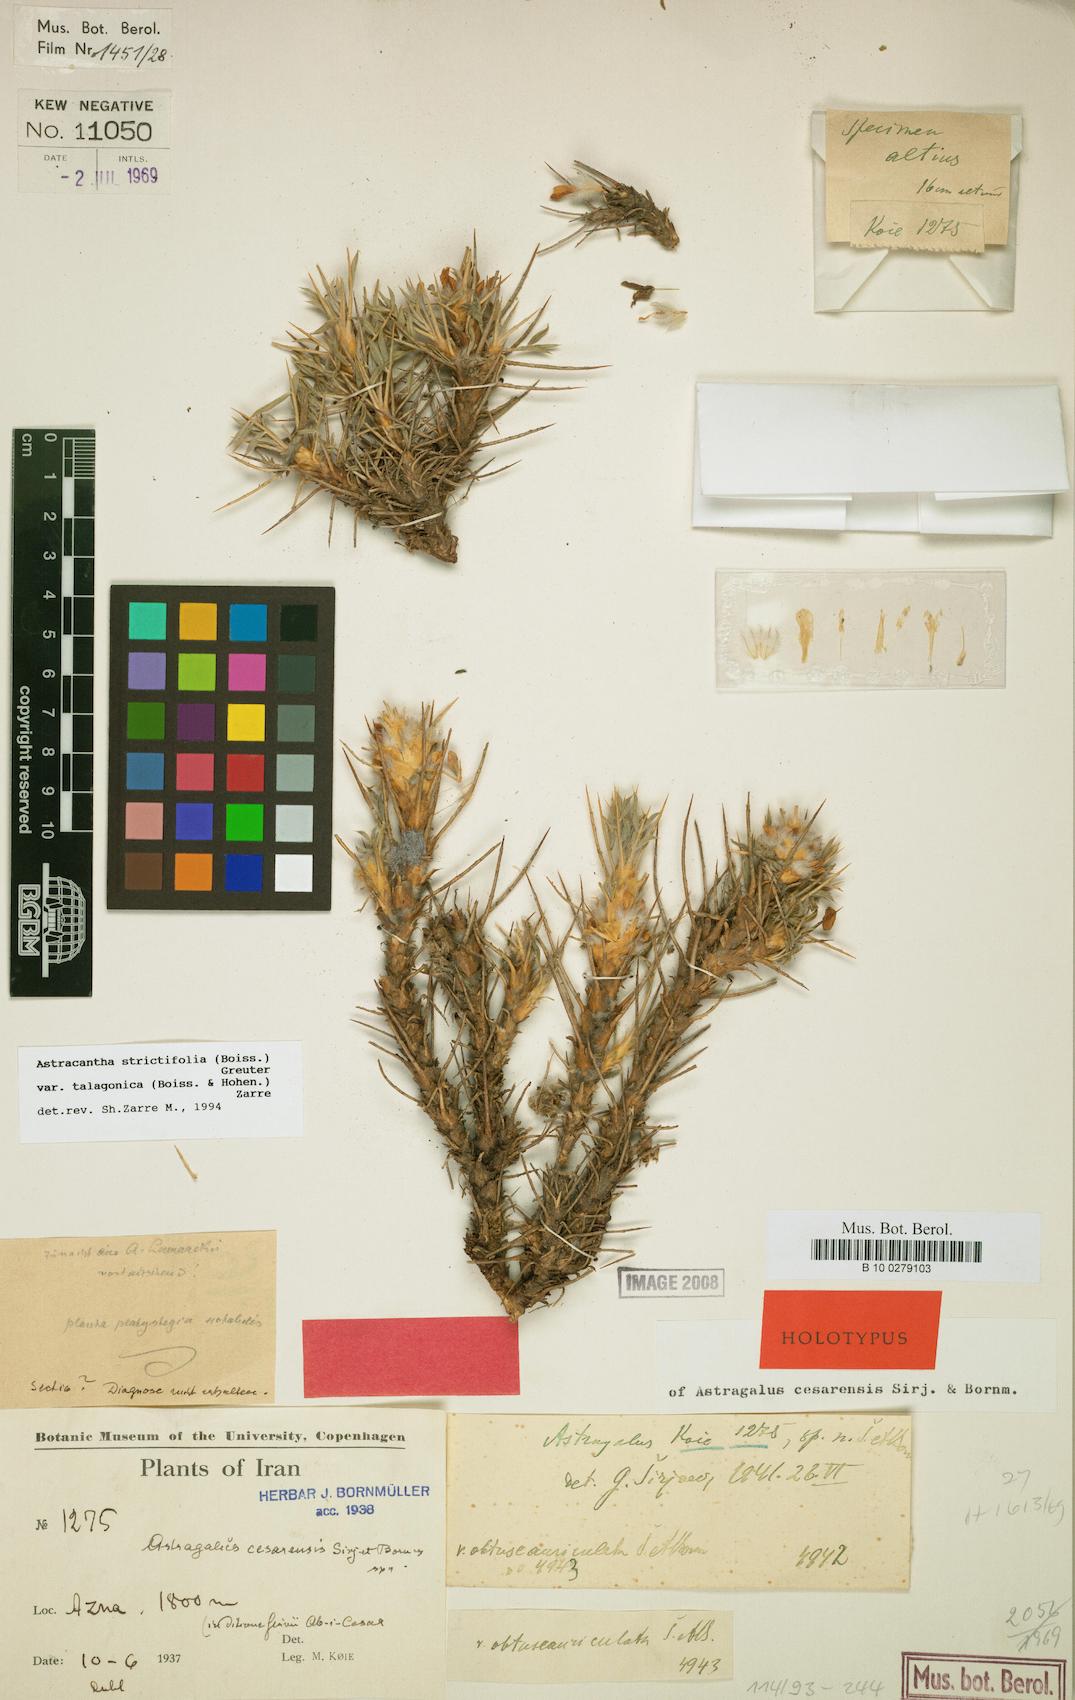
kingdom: Plantae
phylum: Tracheophyta
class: Magnoliopsida
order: Fabales
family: Fabaceae
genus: Astragalus
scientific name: Astragalus strictifolius
